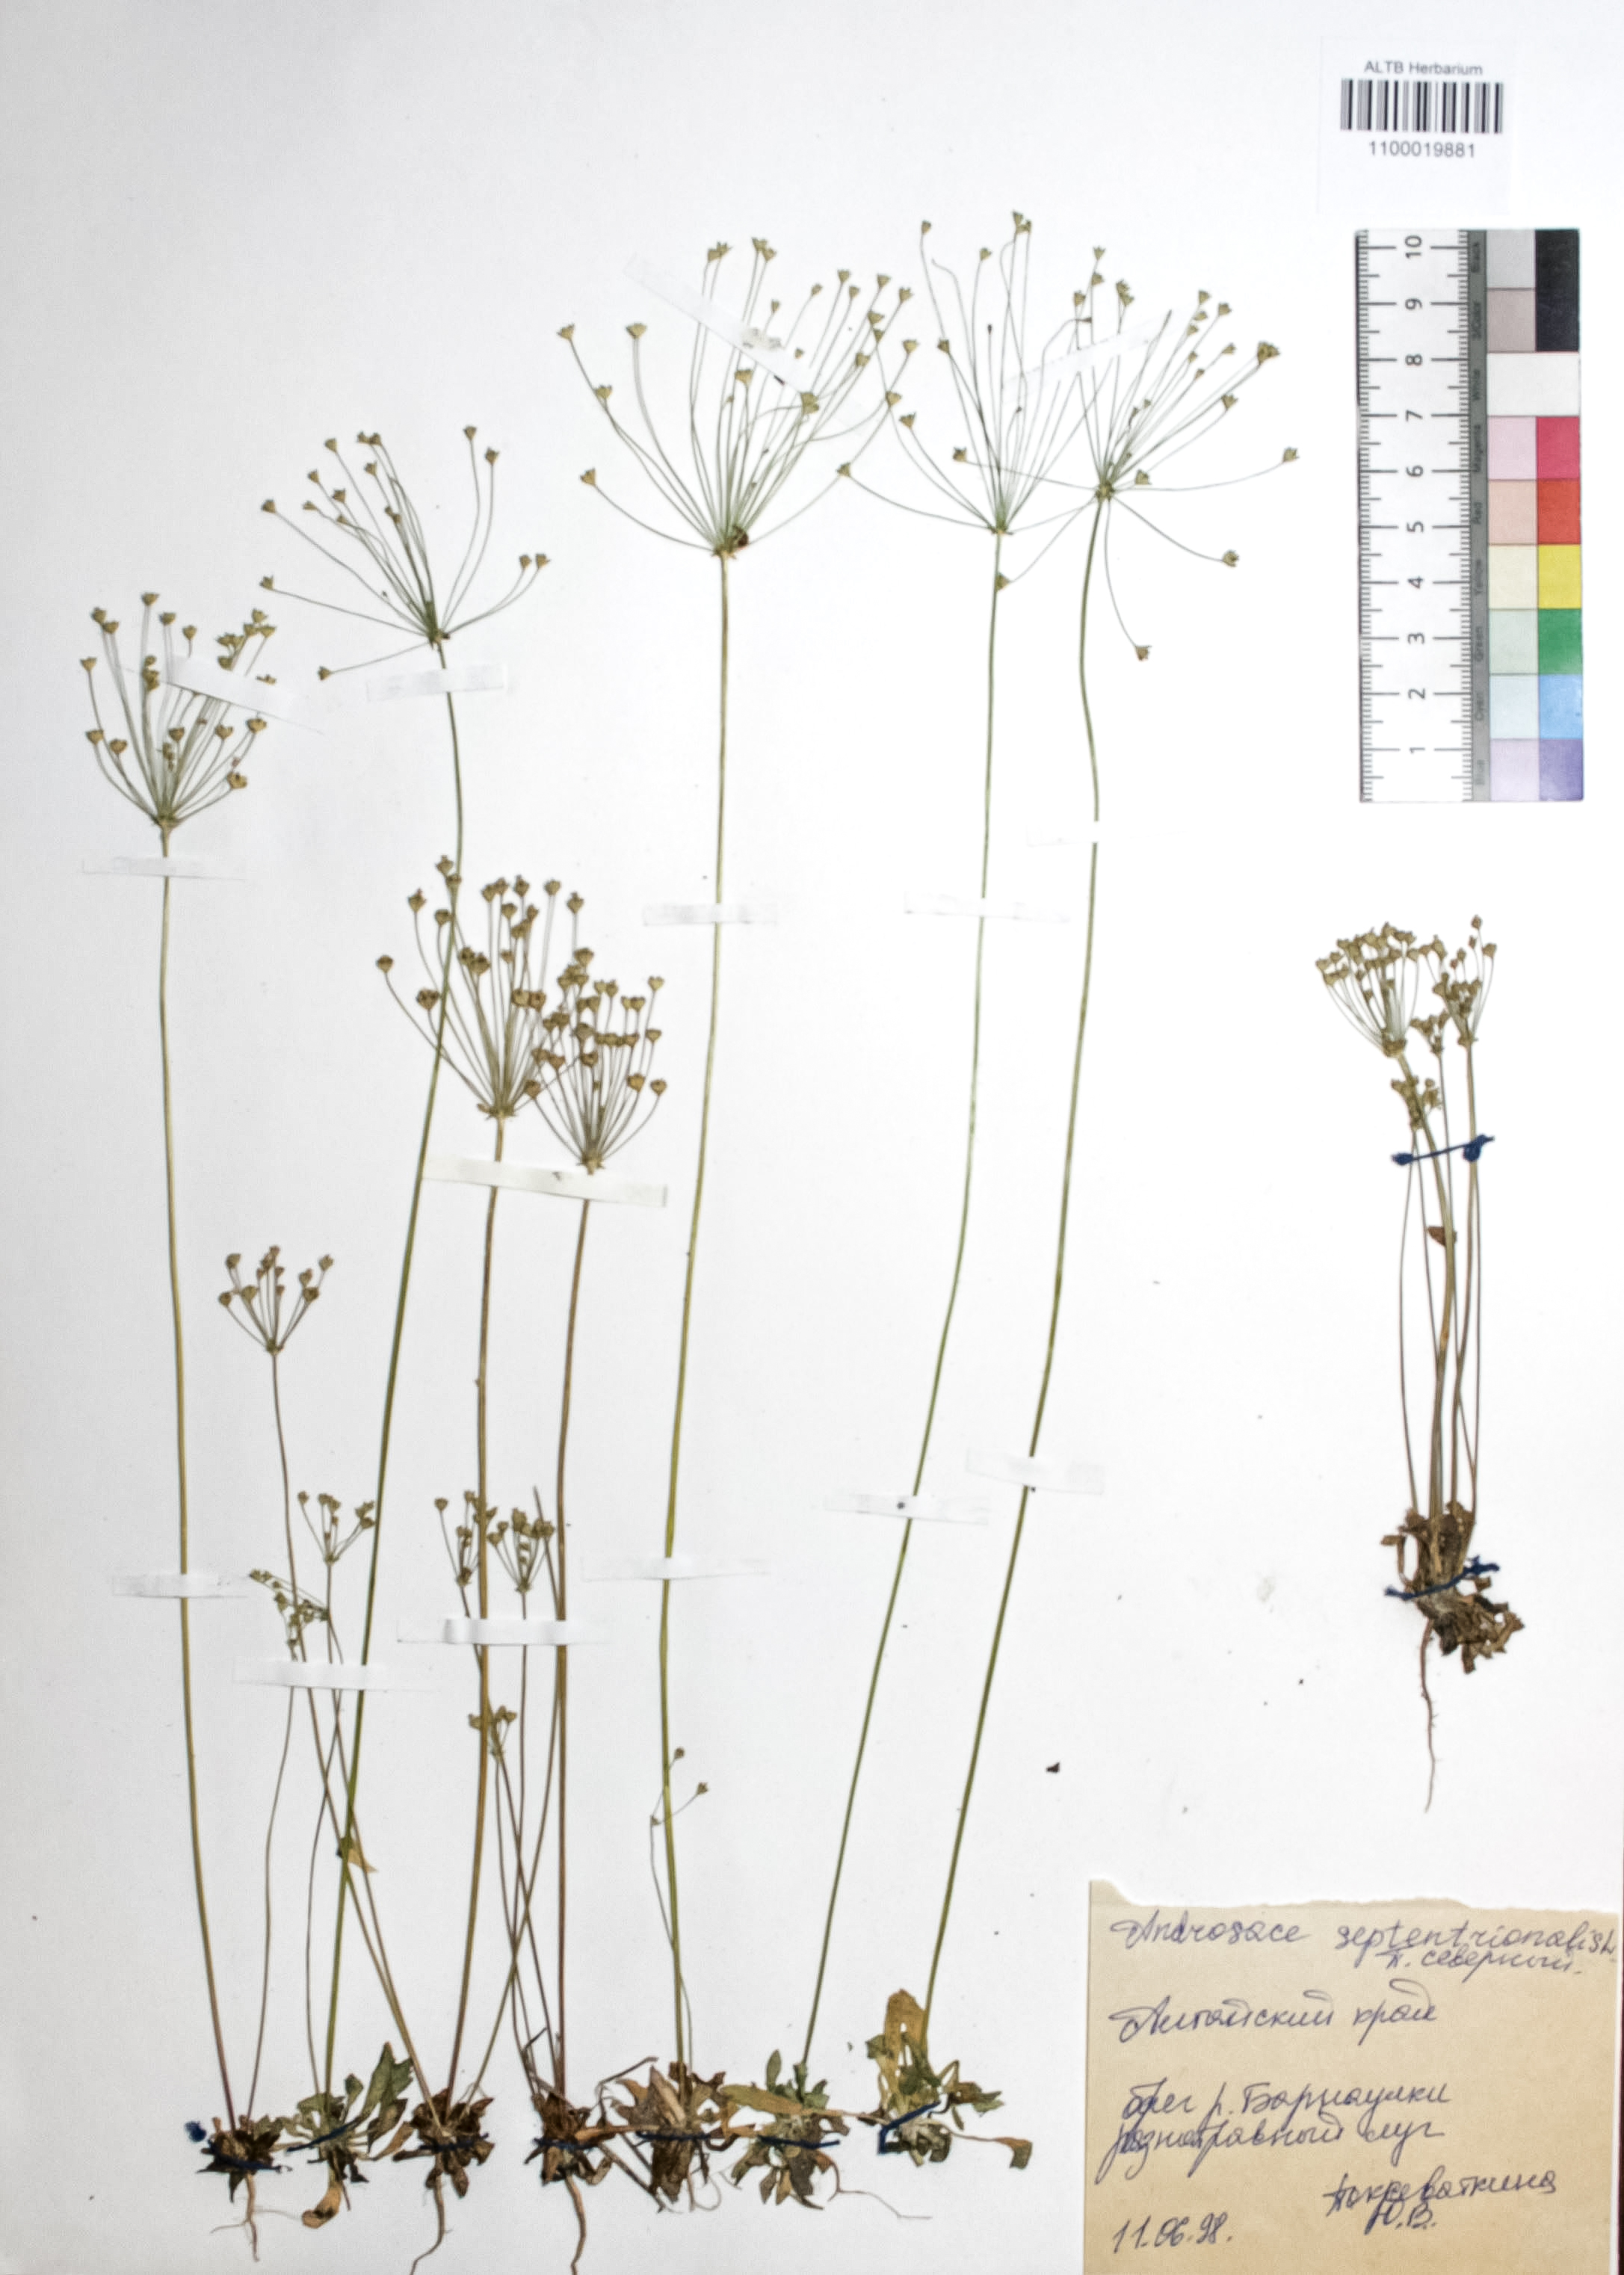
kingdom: Plantae
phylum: Tracheophyta
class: Magnoliopsida
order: Ericales
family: Primulaceae
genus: Androsace
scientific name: Androsace septentrionalis
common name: Hairy northern fairy-candelabra
